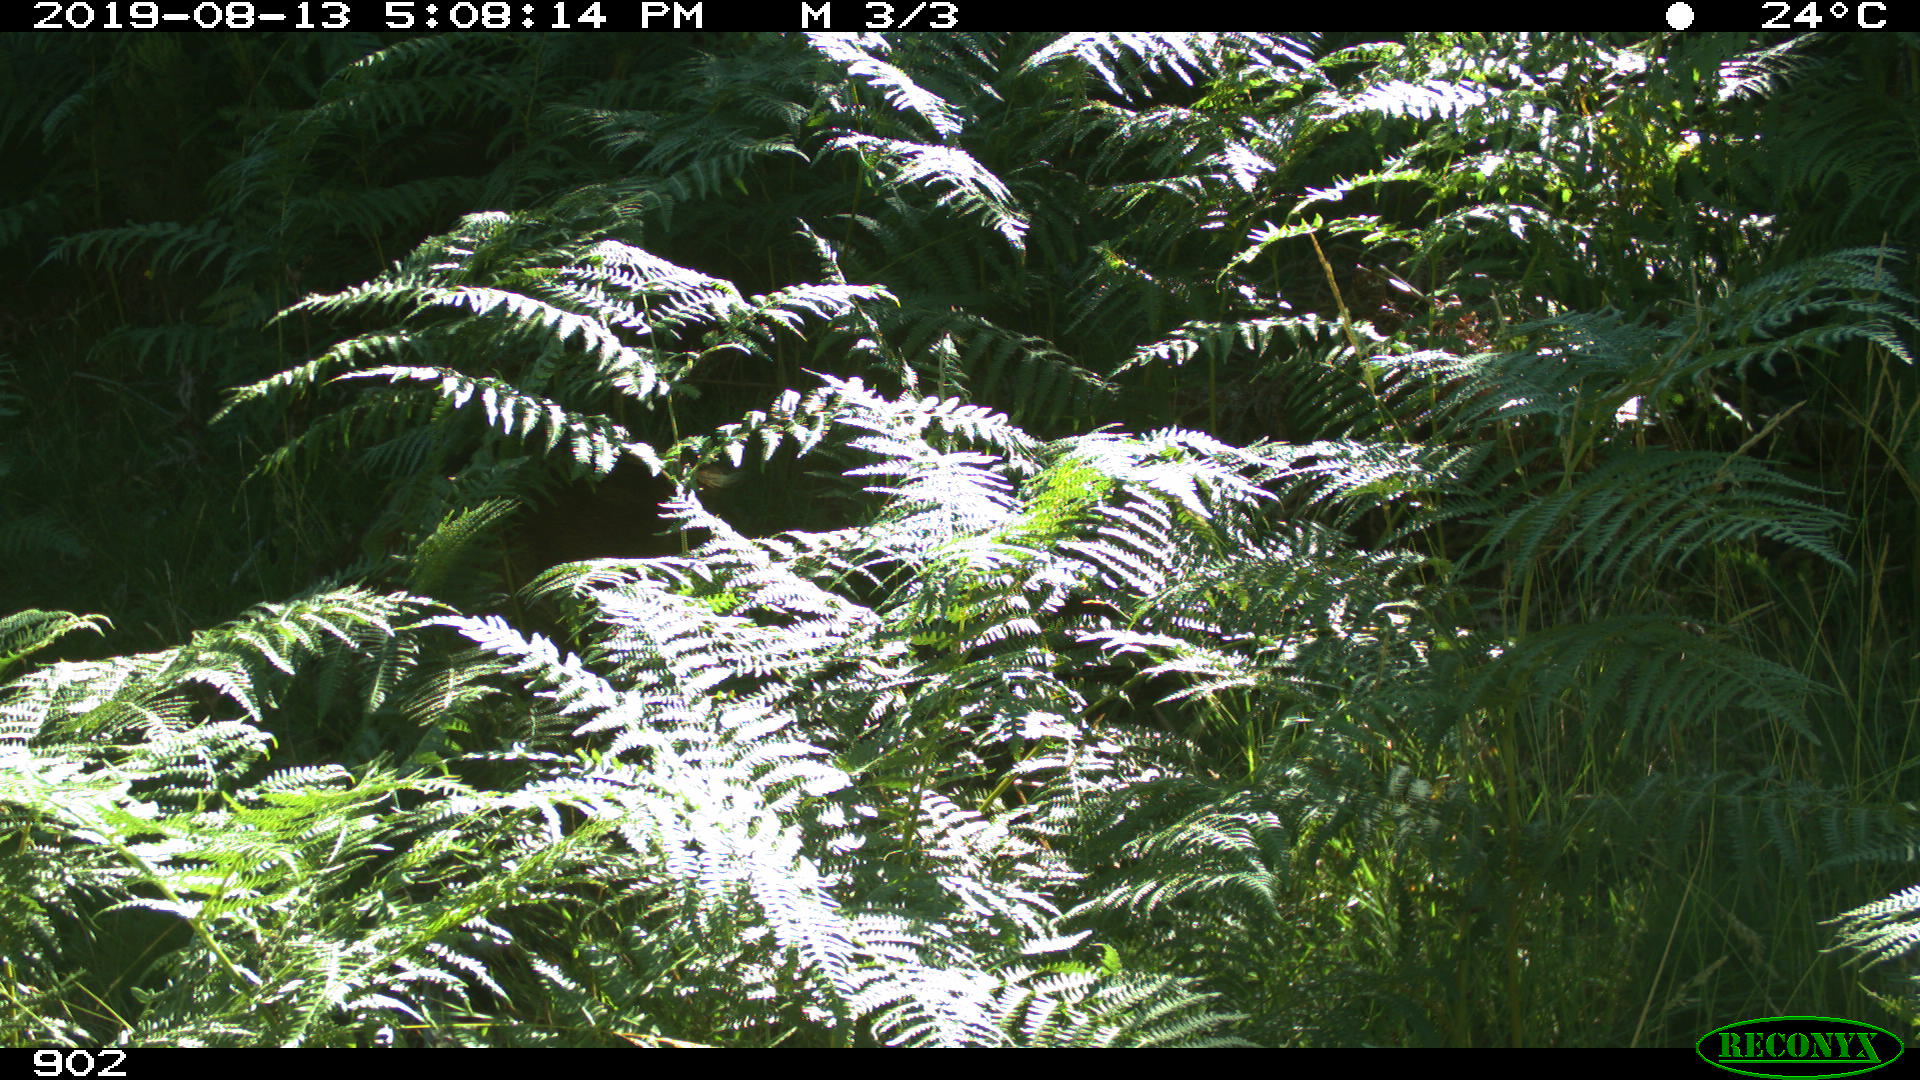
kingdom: Animalia
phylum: Chordata
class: Mammalia
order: Artiodactyla
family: Suidae
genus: Sus
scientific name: Sus scrofa
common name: Wild boar
